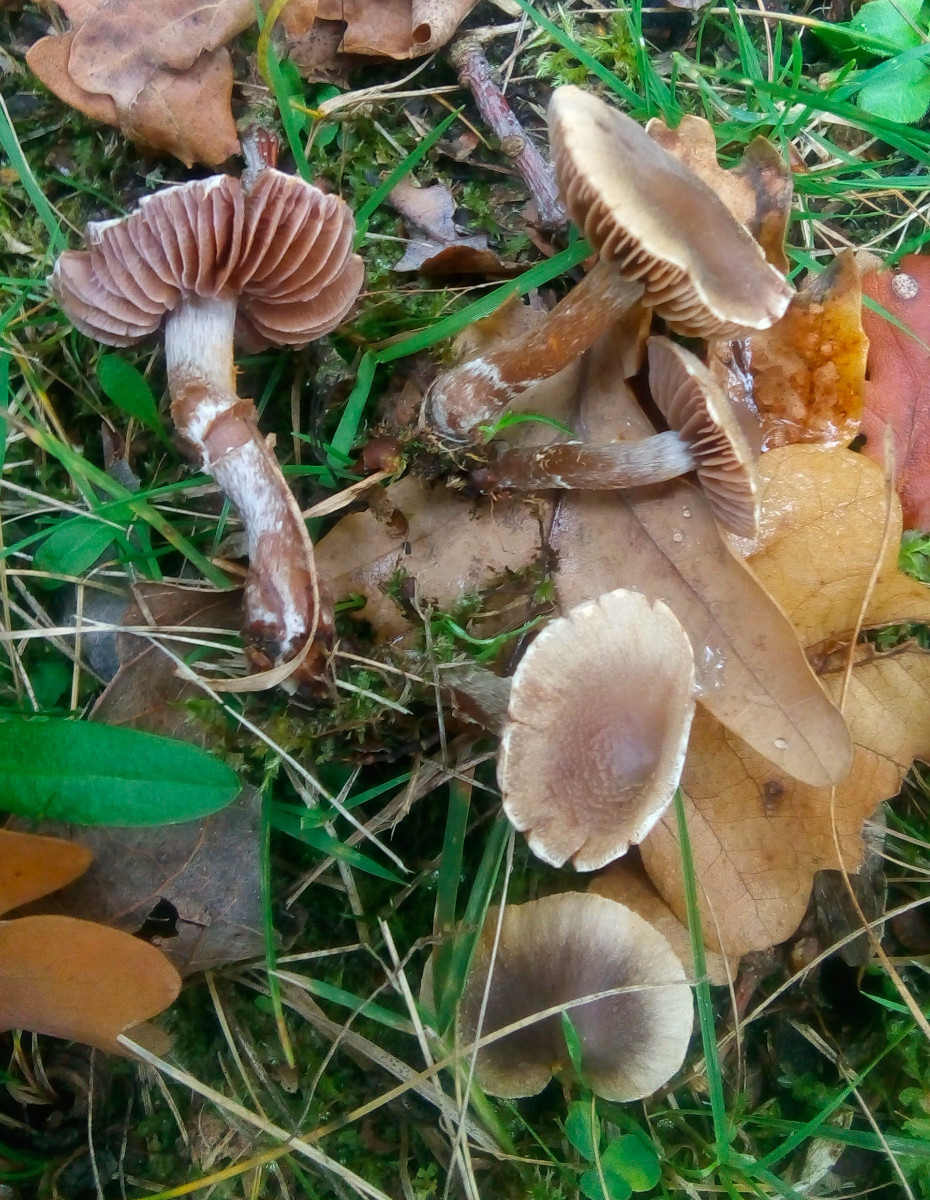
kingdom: Fungi
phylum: Basidiomycota
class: Agaricomycetes
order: Agaricales
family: Cortinariaceae
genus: Cortinarius
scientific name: Cortinarius
